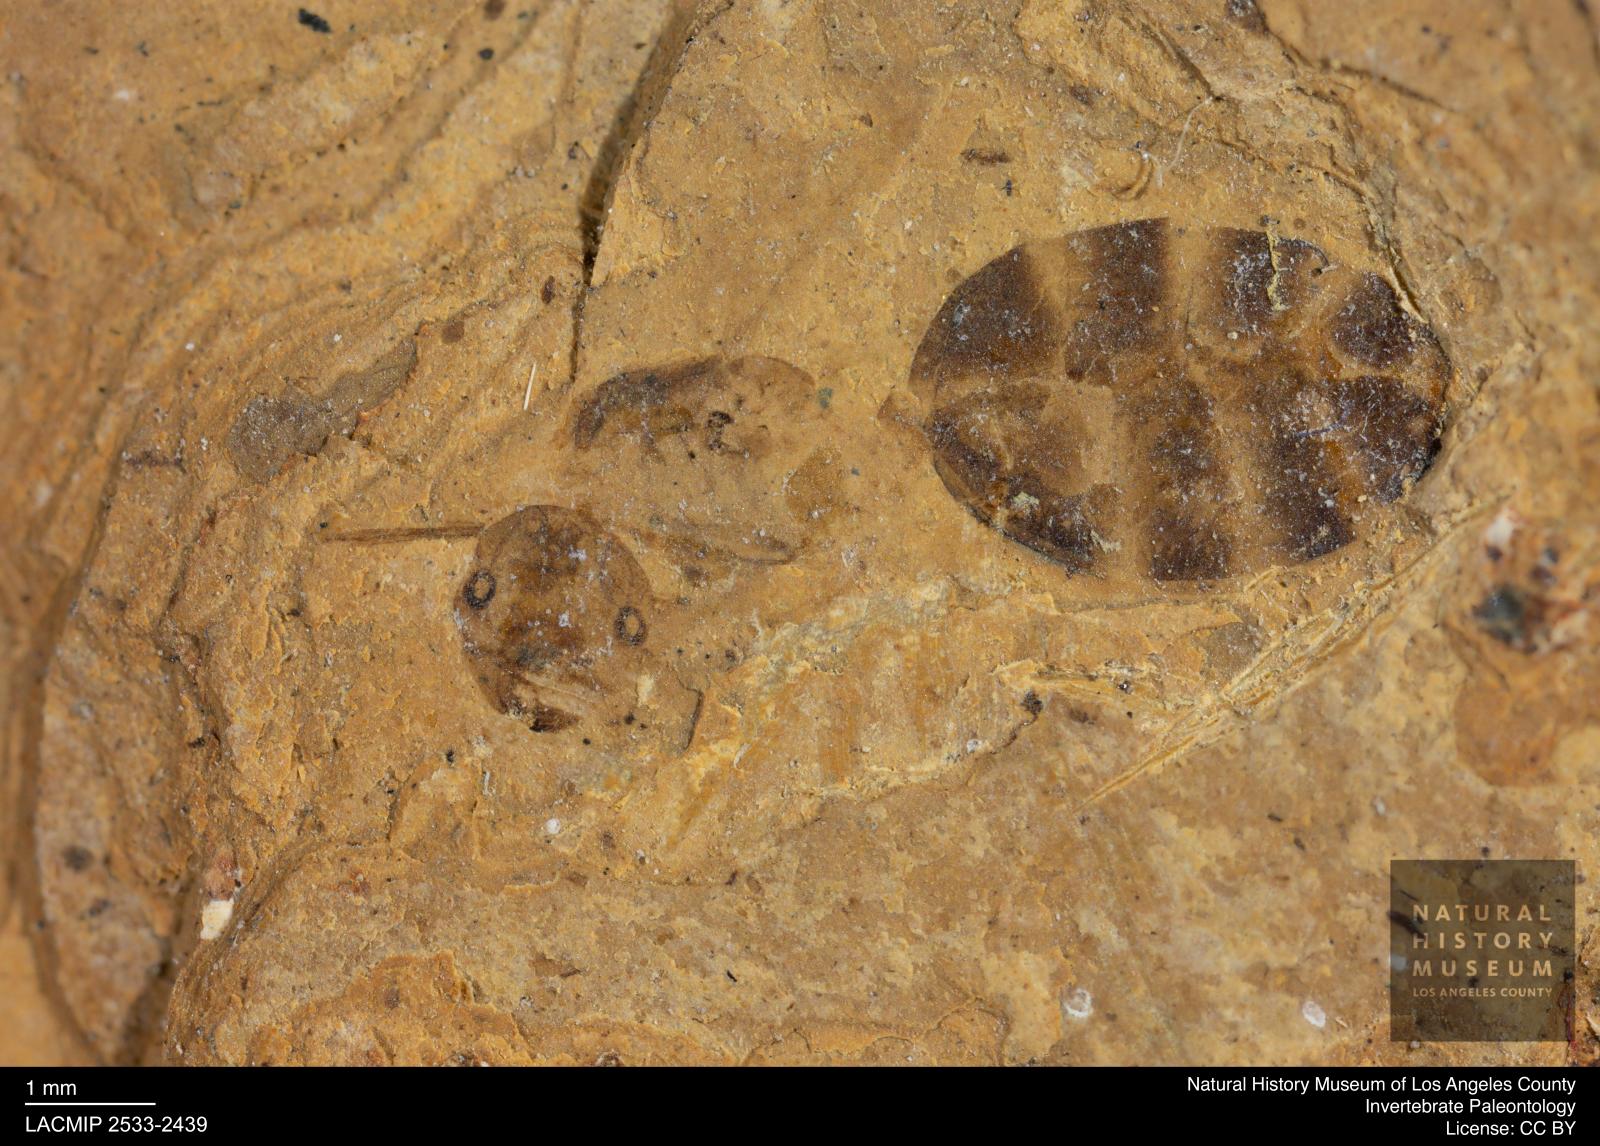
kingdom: Animalia
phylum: Arthropoda
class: Insecta
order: Hymenoptera
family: Formicidae
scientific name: Formicidae
